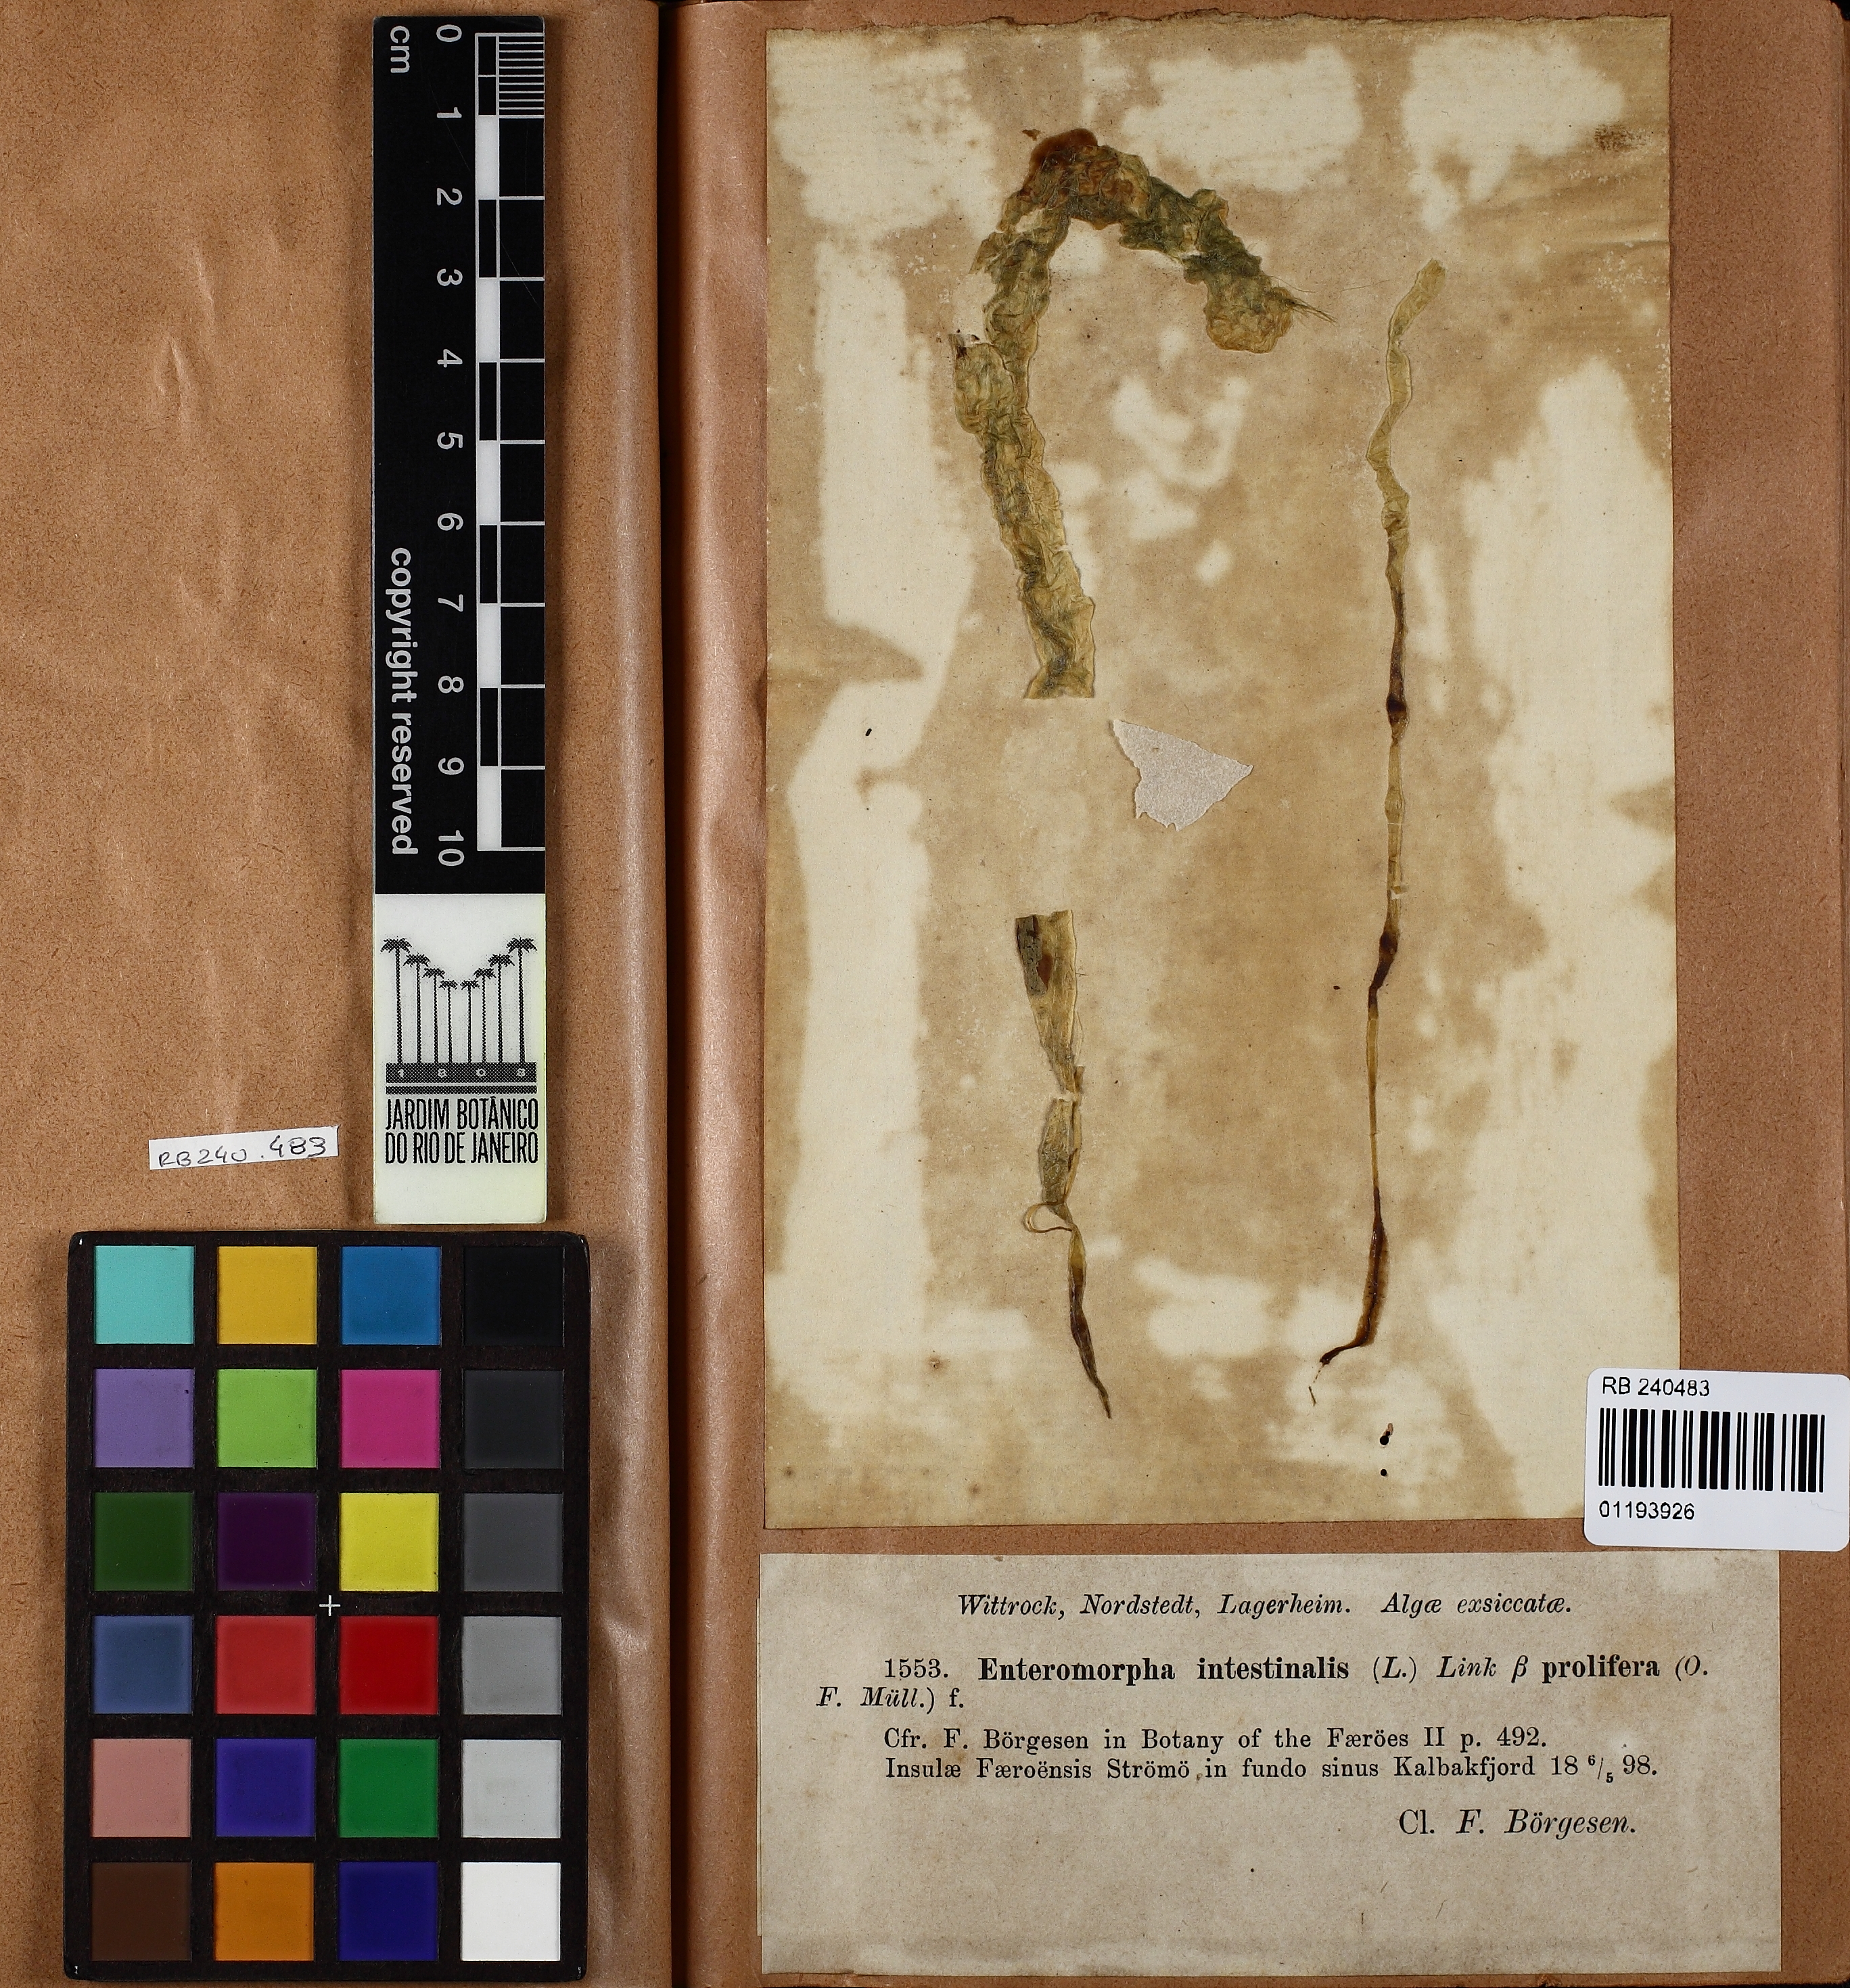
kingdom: Plantae
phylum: Chlorophyta
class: Ulvophyceae
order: Ulvales
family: Ulvaceae
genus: Ulva
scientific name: Ulva intestinalis
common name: Gut weed
